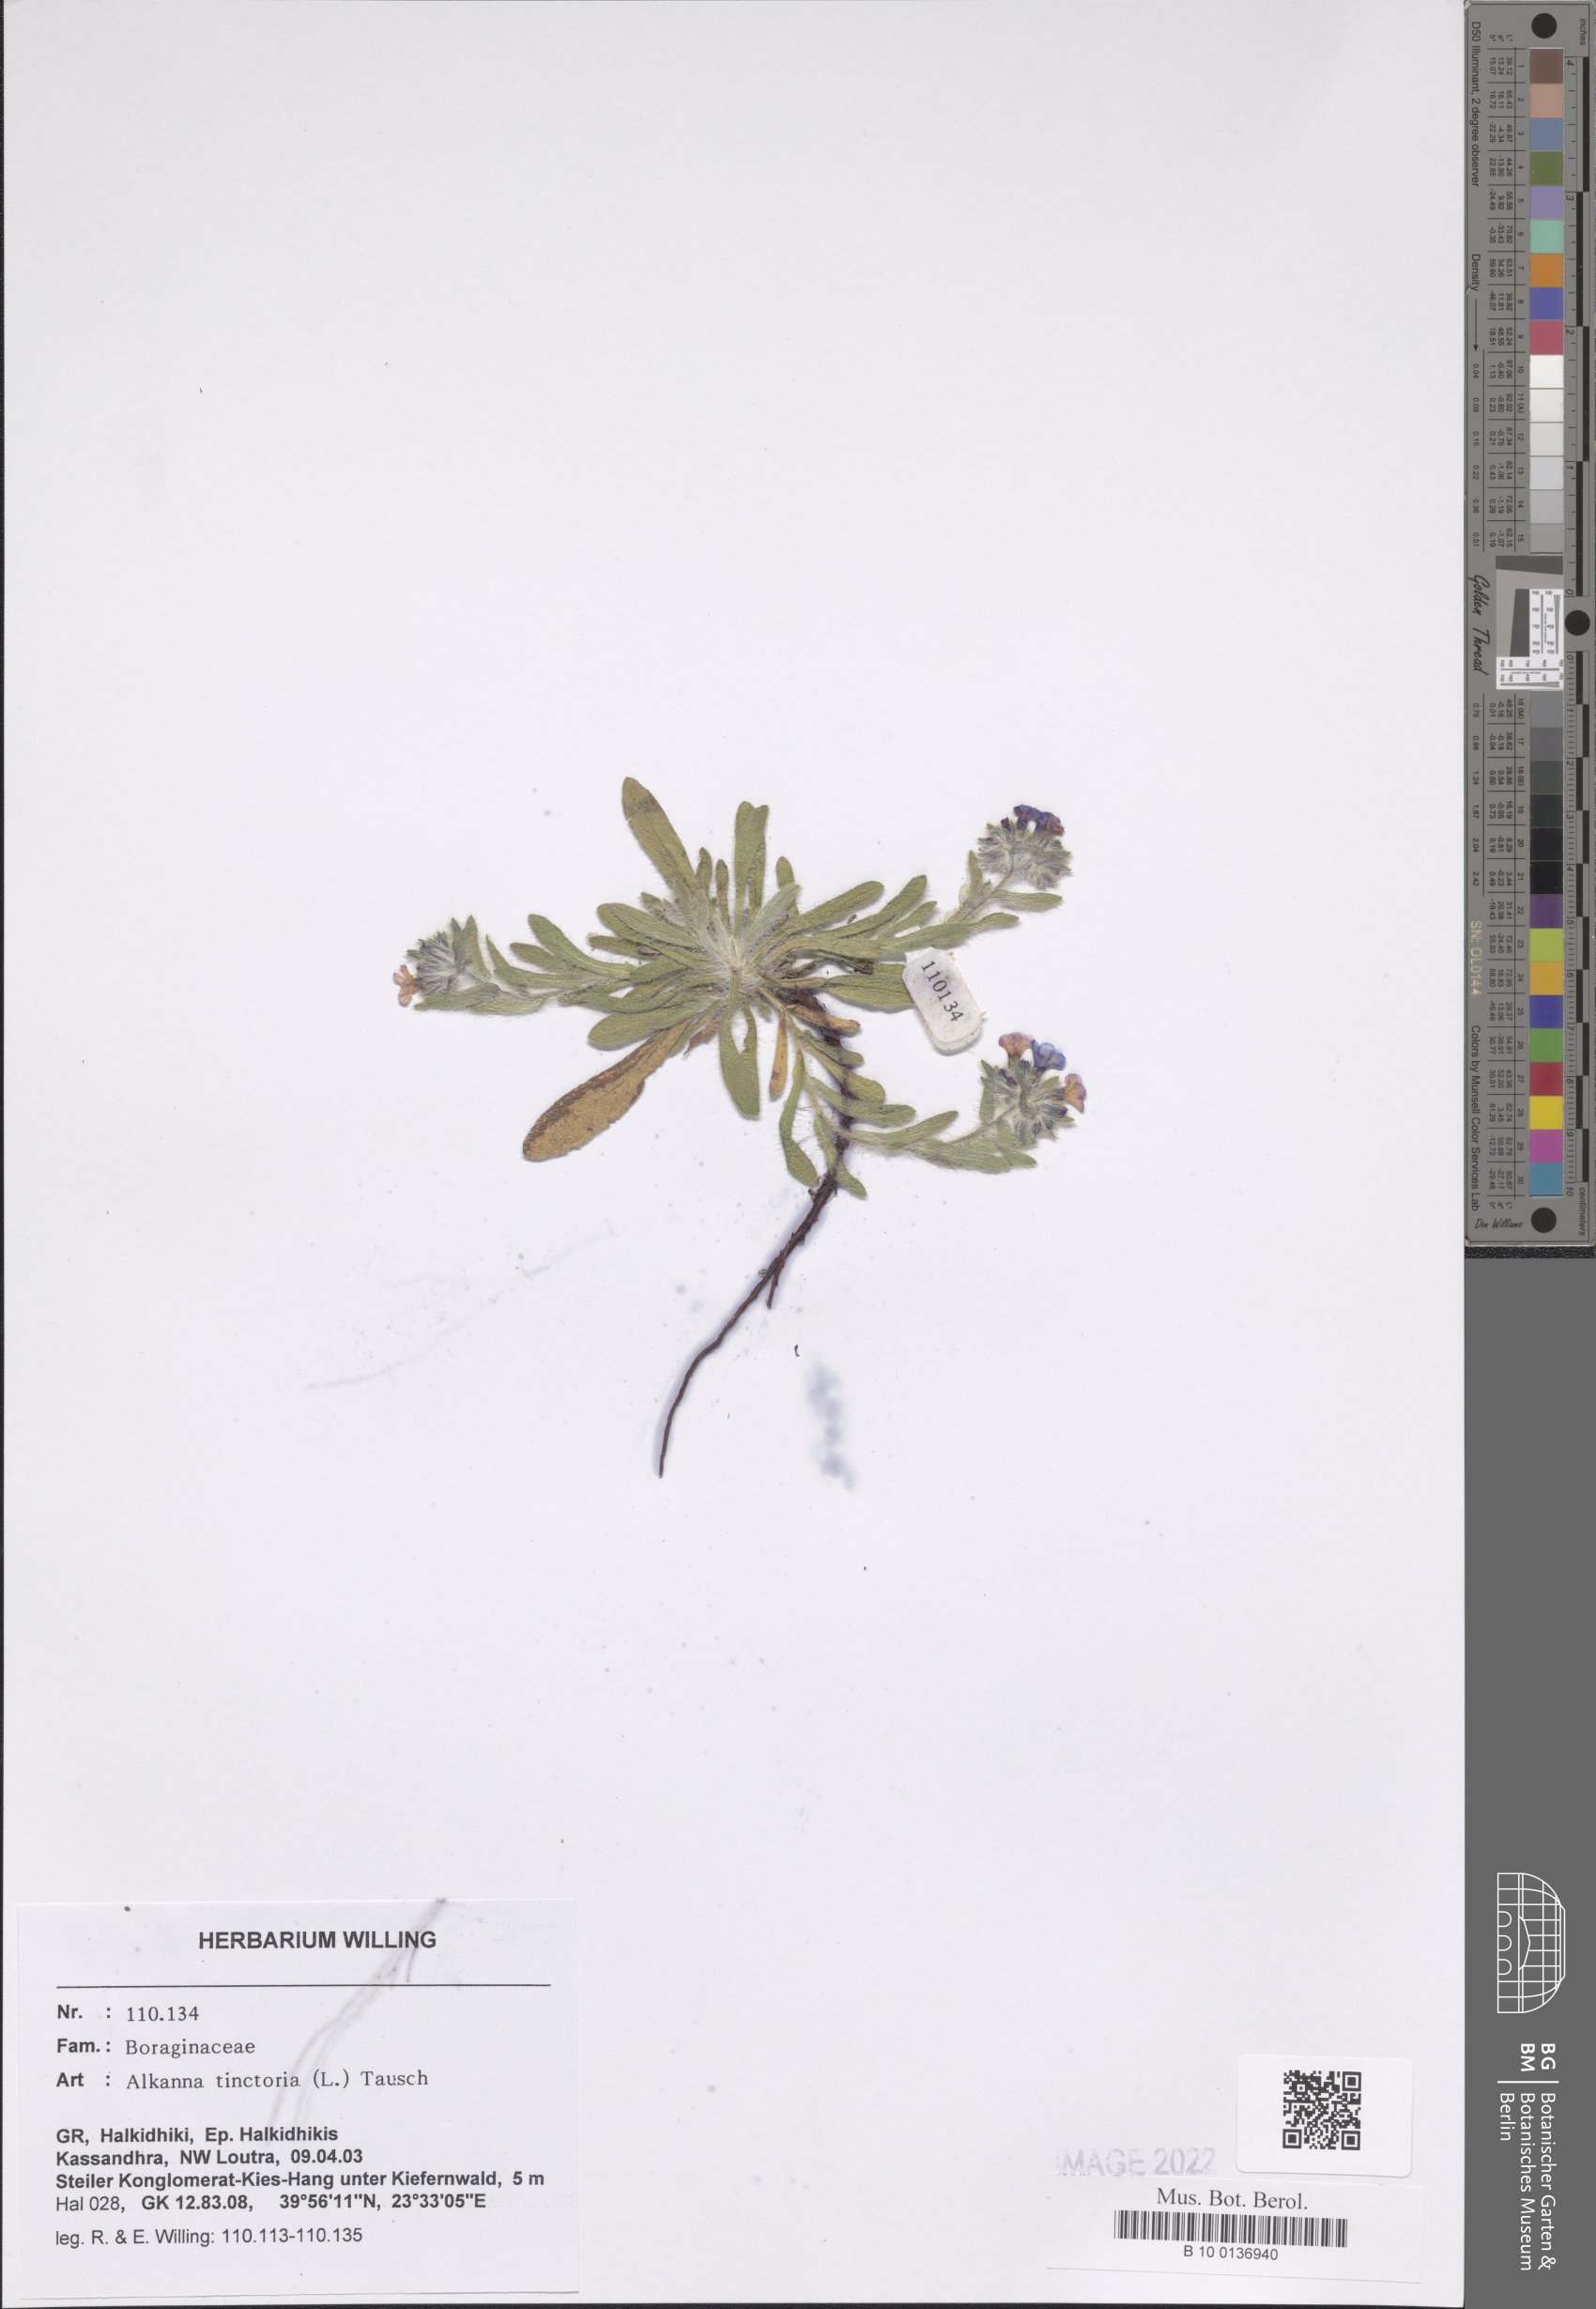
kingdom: Plantae
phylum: Tracheophyta
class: Magnoliopsida
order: Boraginales
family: Boraginaceae
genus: Alkanna
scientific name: Alkanna tinctoria
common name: Dyer's-alkanet
